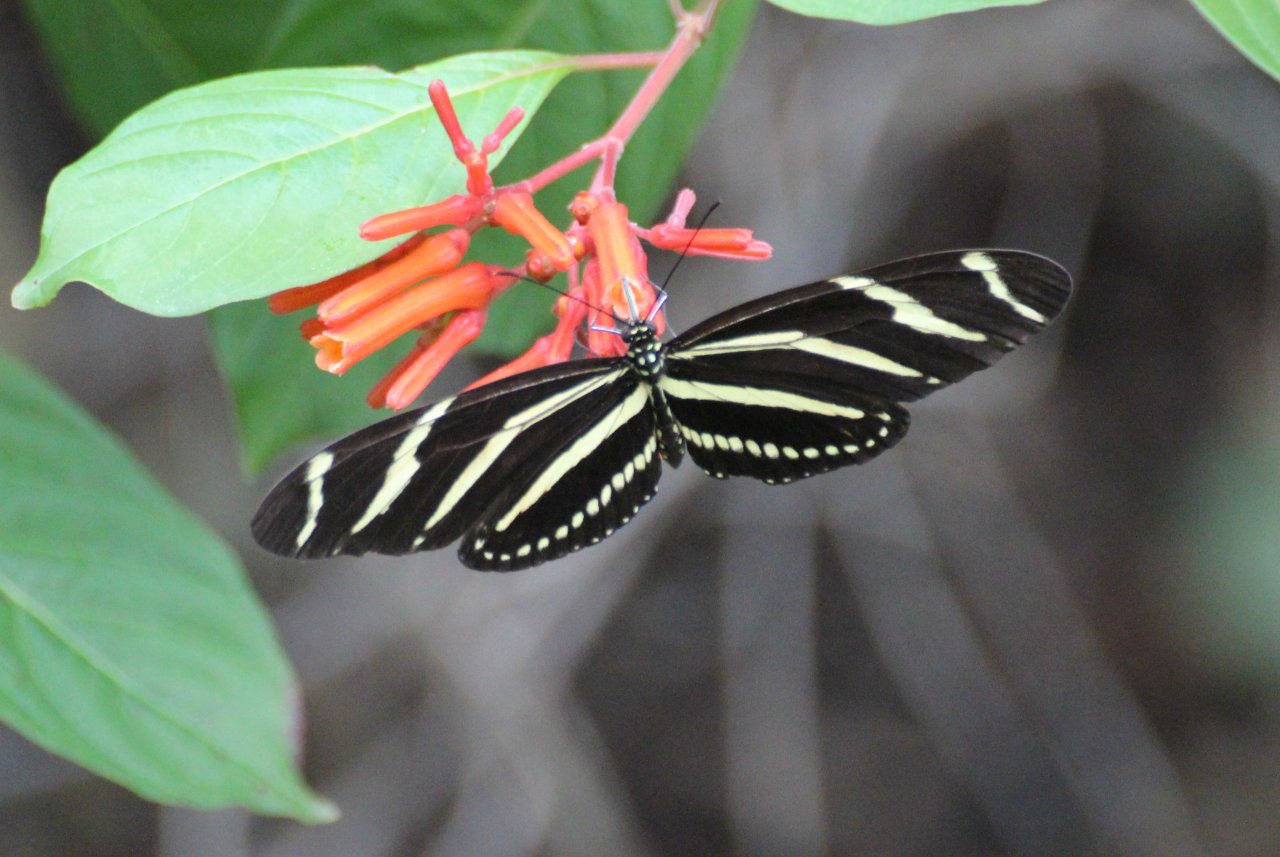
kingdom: Animalia
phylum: Arthropoda
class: Insecta
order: Lepidoptera
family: Nymphalidae
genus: Heliconius
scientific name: Heliconius charithonia
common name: Zebra Longwing
